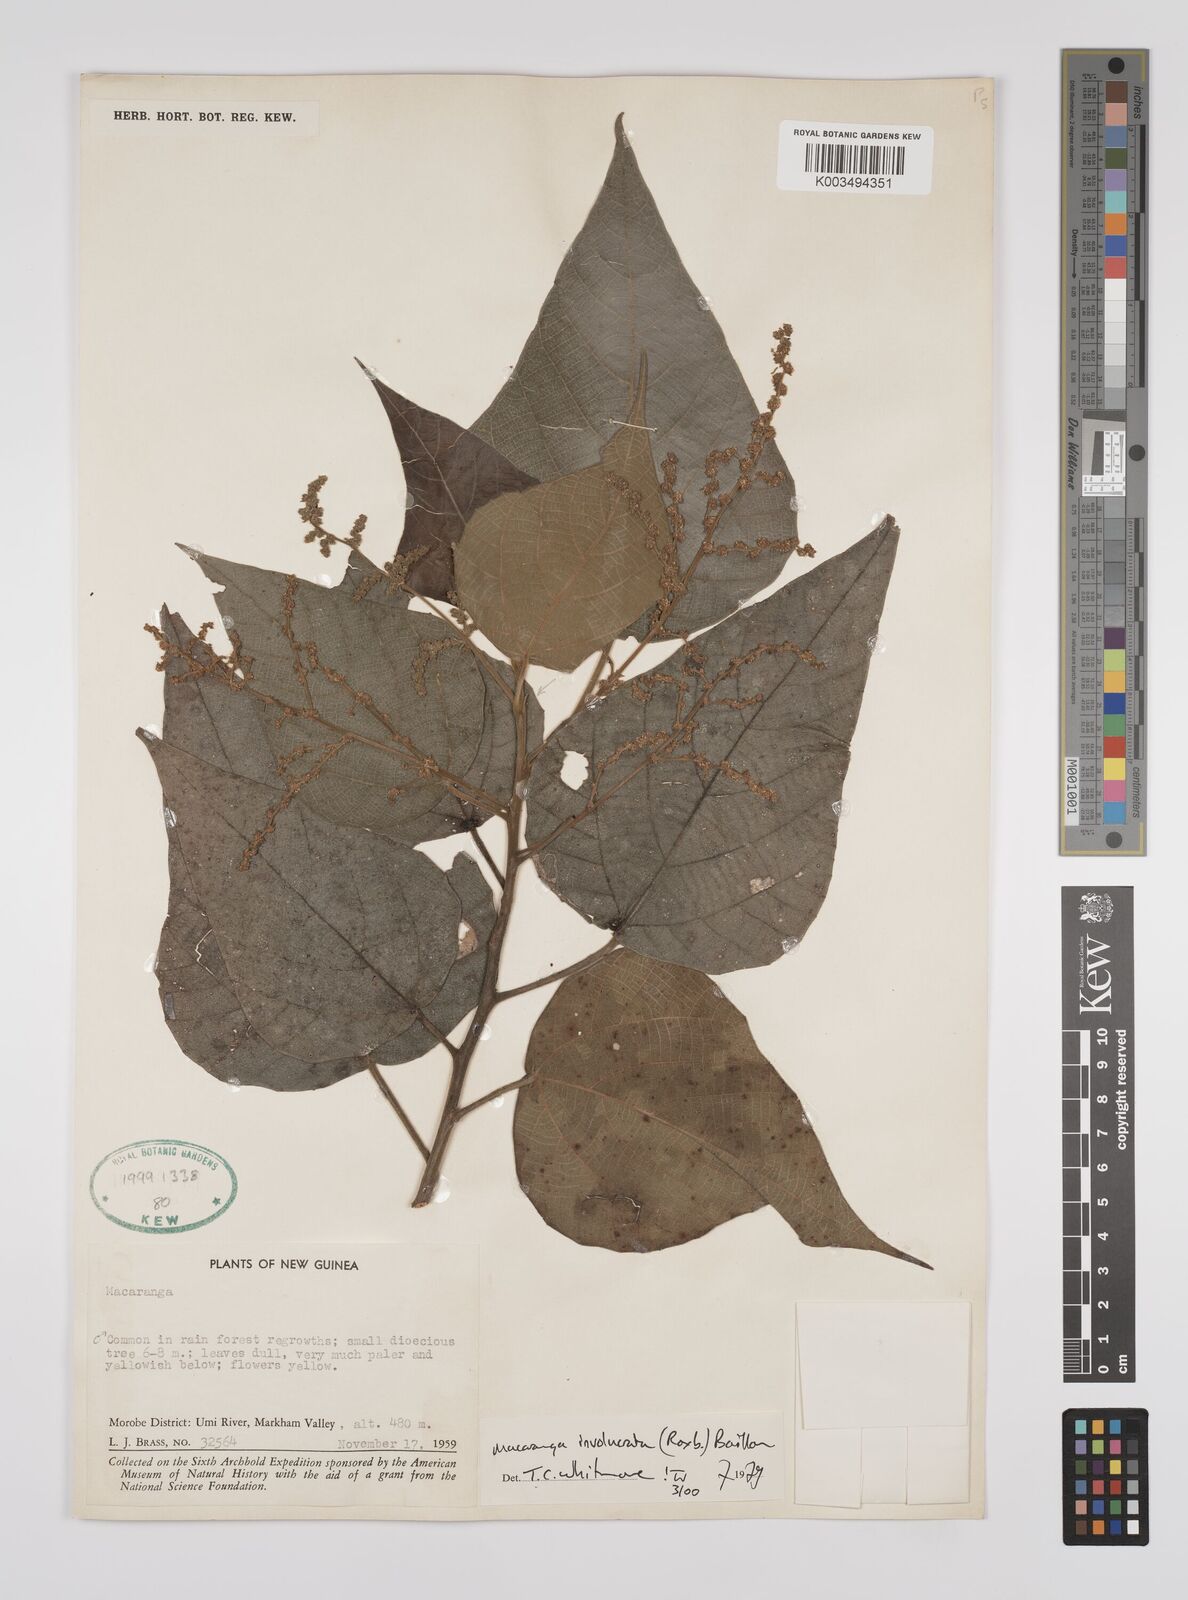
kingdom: Plantae
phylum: Tracheophyta
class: Magnoliopsida
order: Malpighiales
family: Euphorbiaceae
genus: Macaranga
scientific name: Macaranga involucrata
